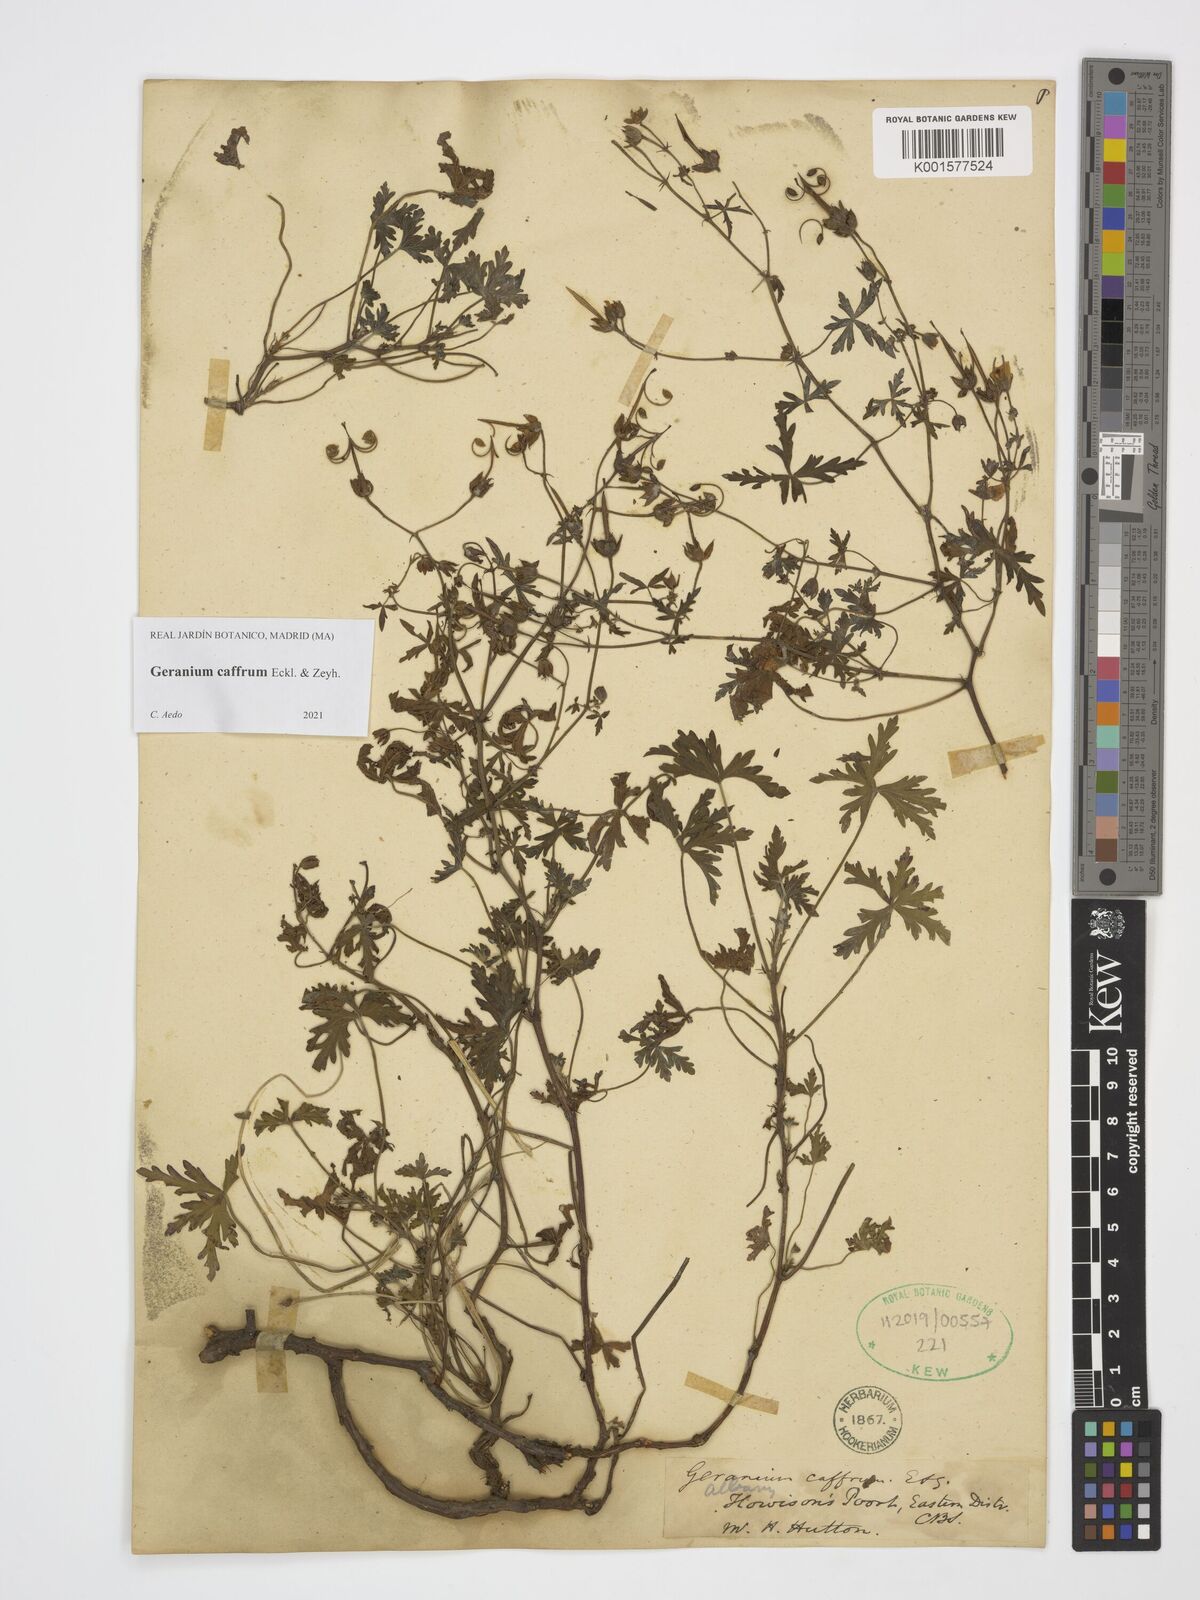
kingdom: Plantae
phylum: Tracheophyta
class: Magnoliopsida
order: Geraniales
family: Geraniaceae
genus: Geranium
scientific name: Geranium caffrum
